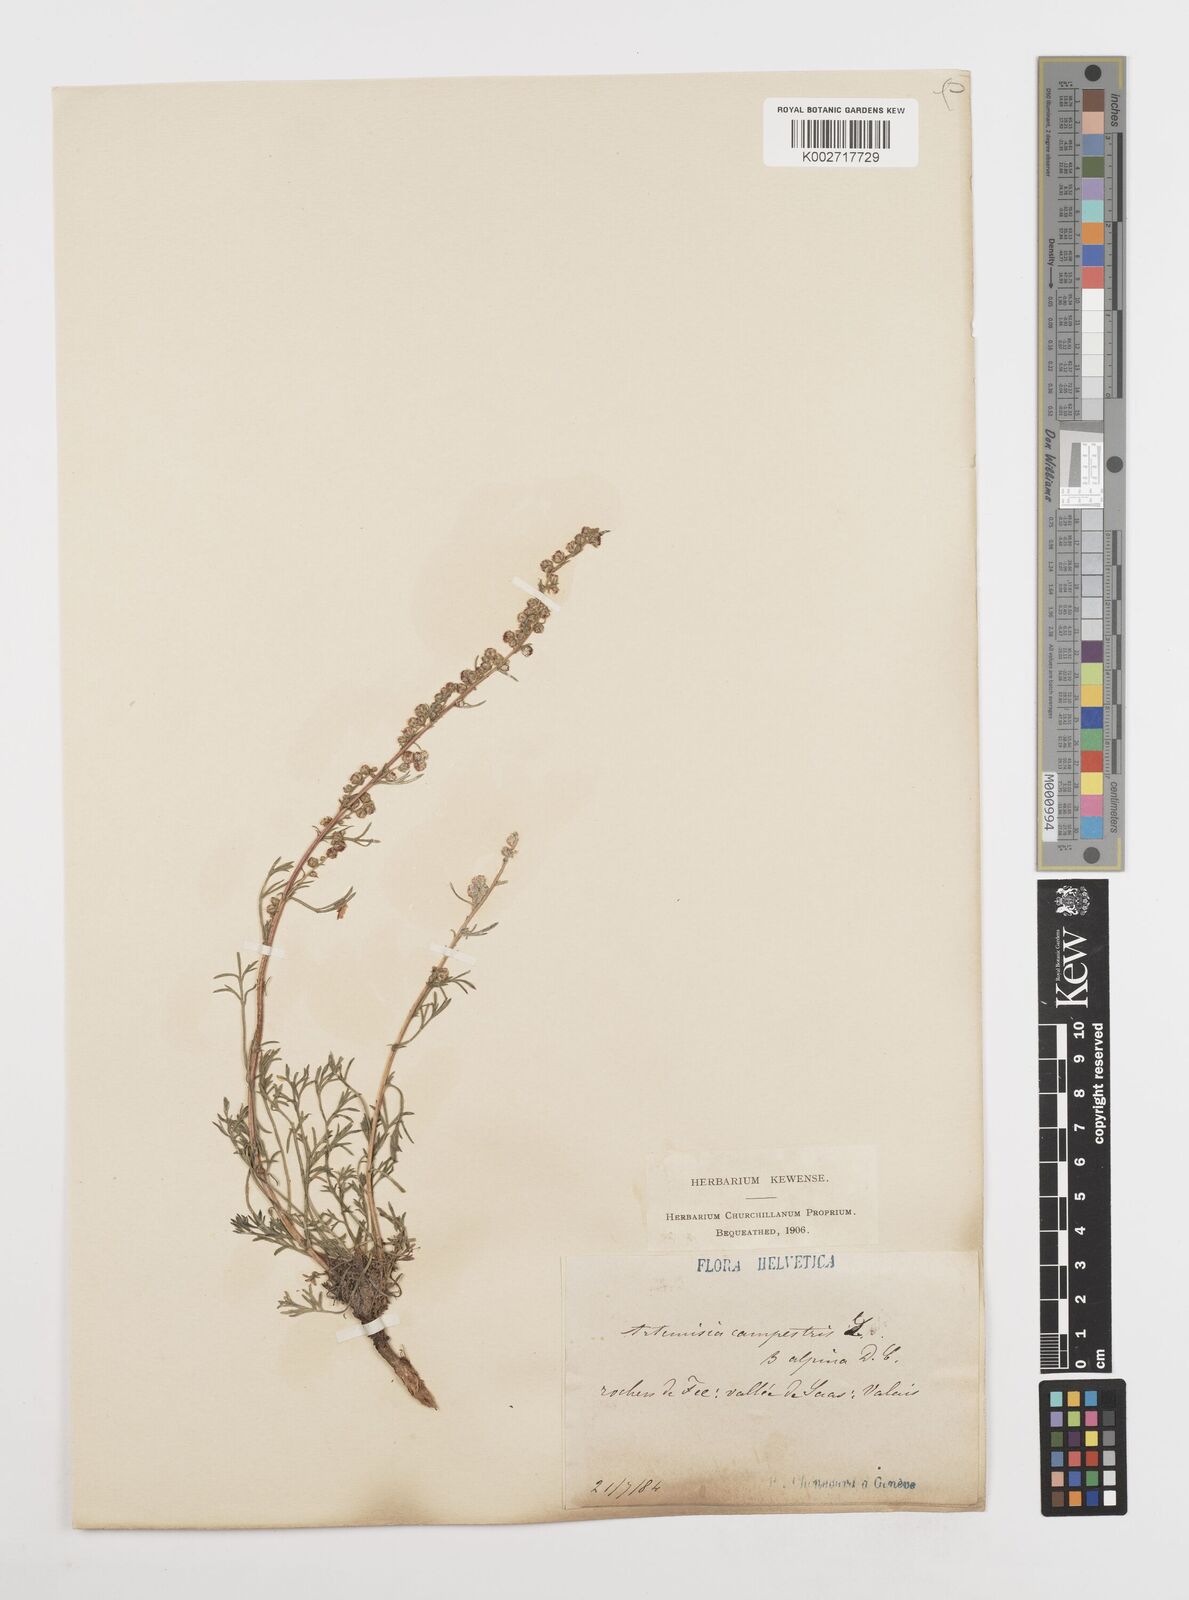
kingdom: Plantae
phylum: Tracheophyta
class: Magnoliopsida
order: Asterales
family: Asteraceae
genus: Artemisia
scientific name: Artemisia campestris
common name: Field wormwood
